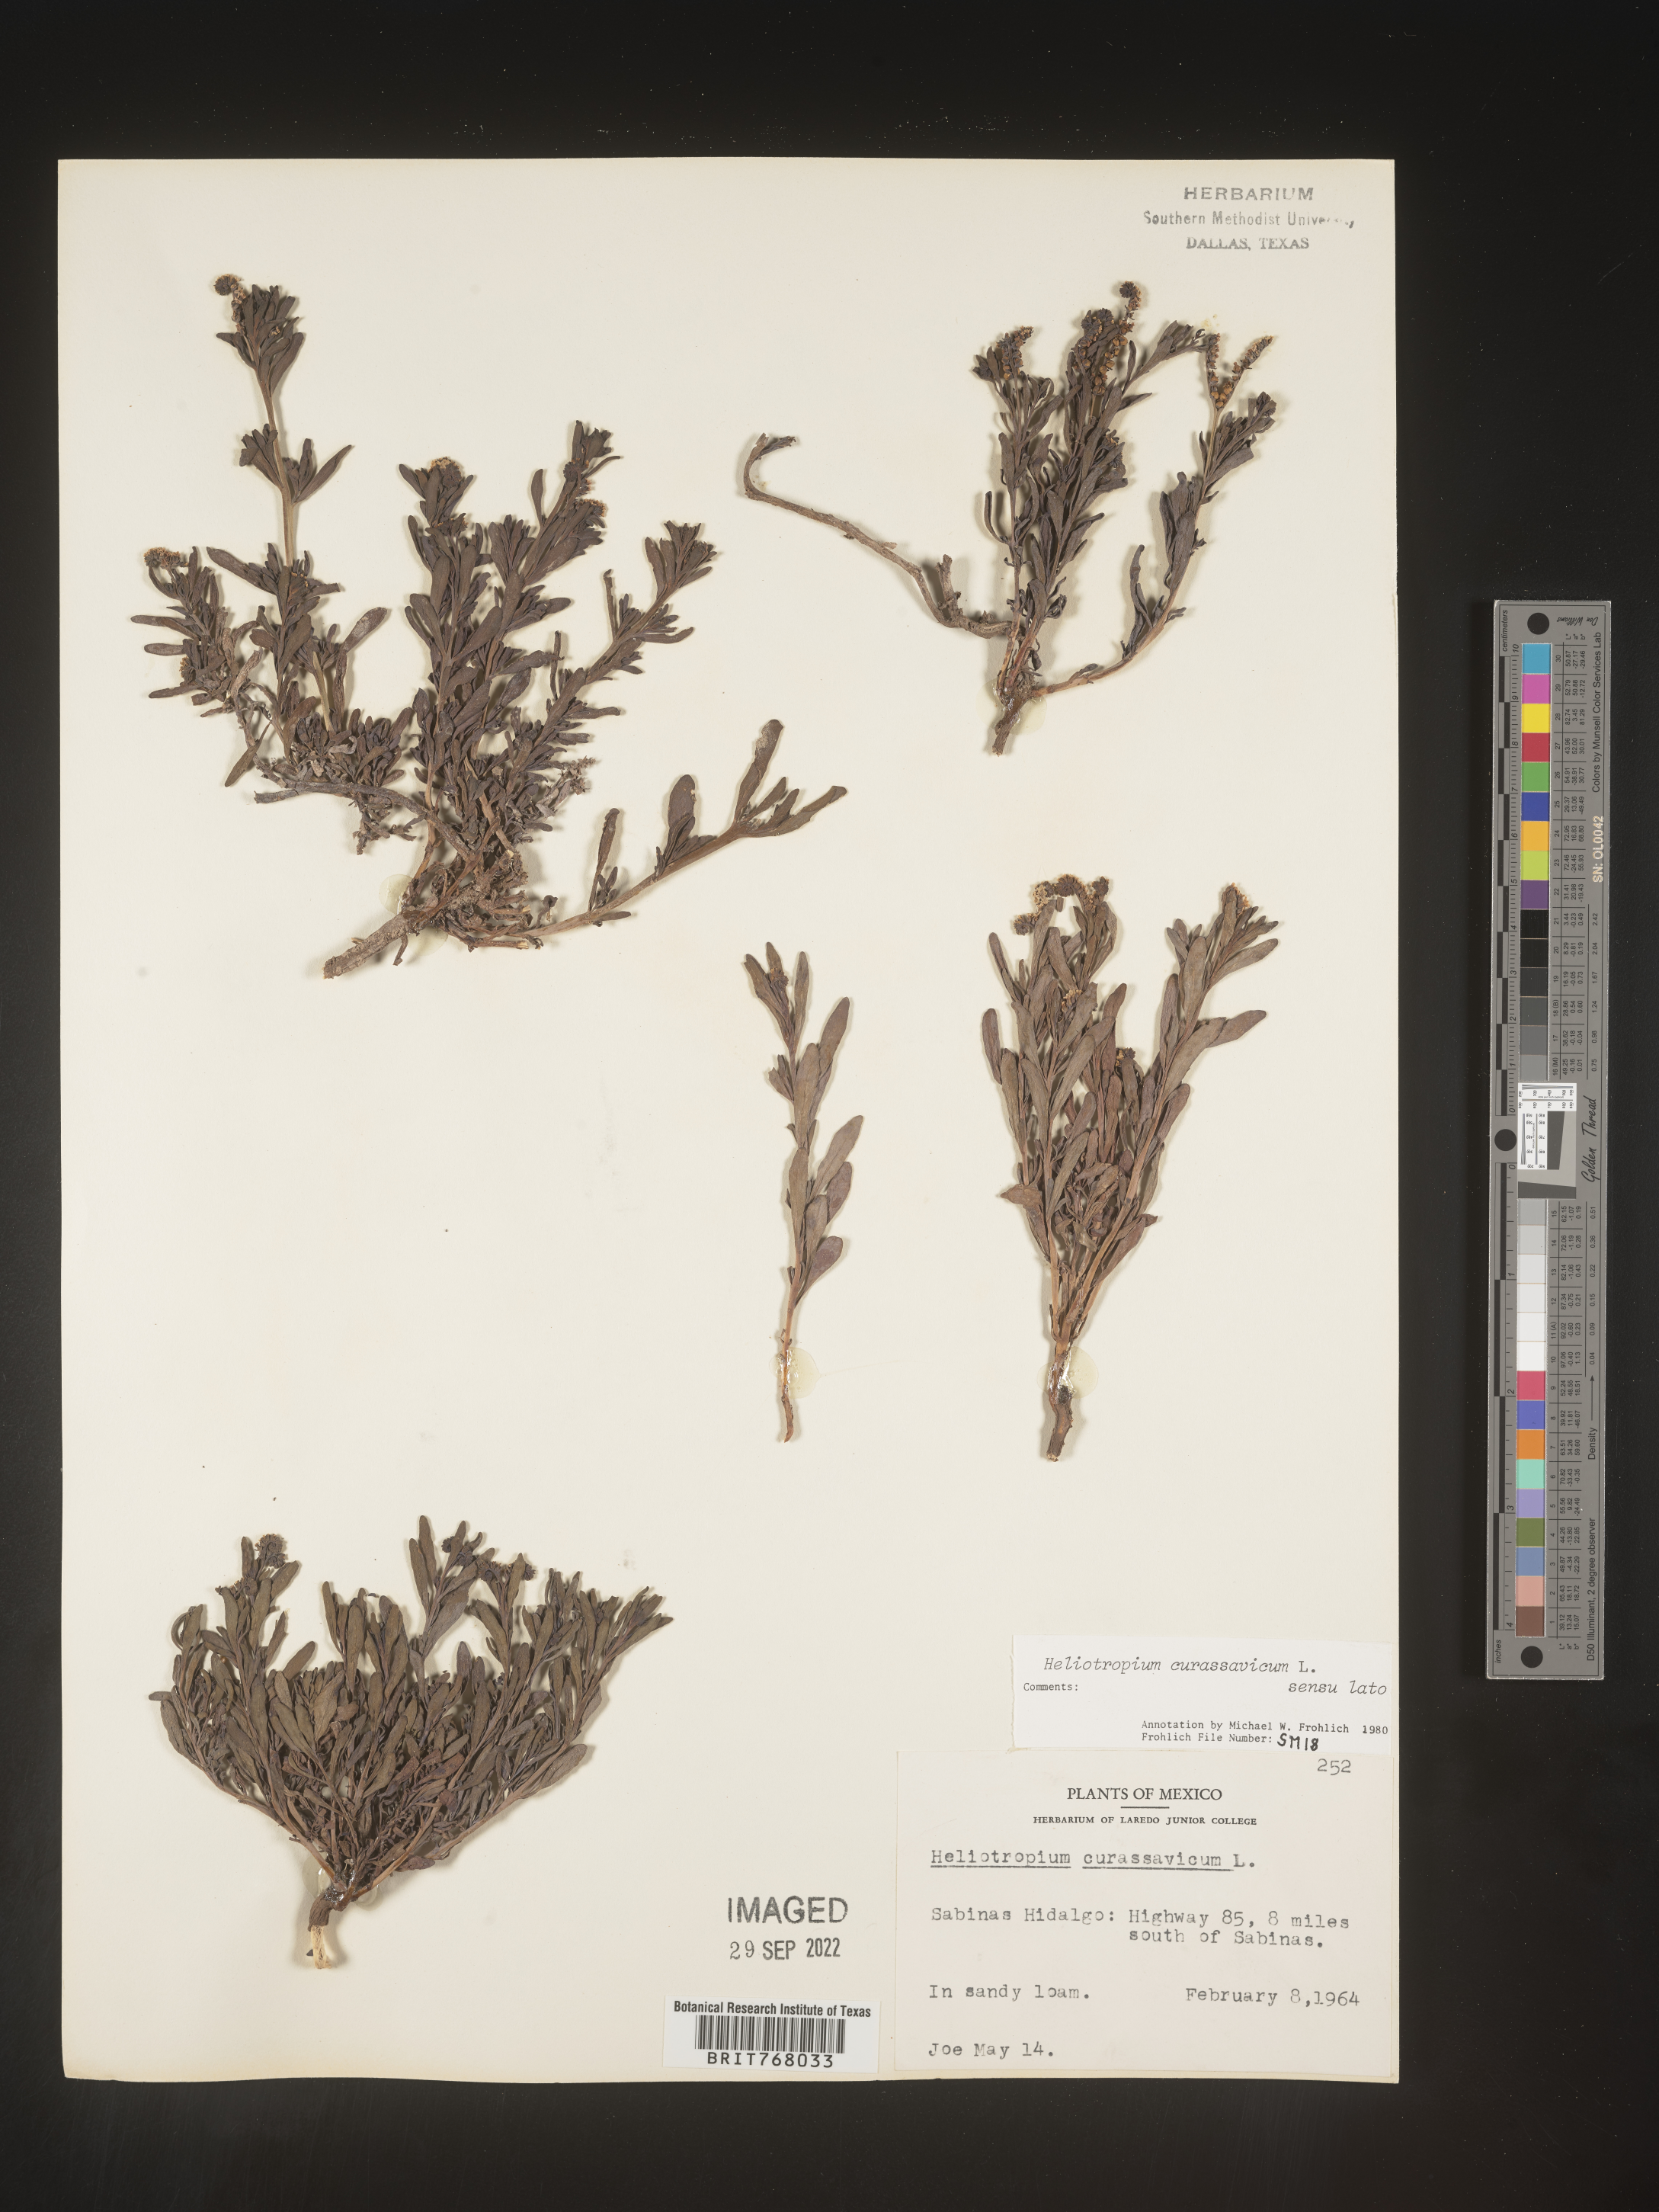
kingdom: Plantae
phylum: Tracheophyta
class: Magnoliopsida
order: Boraginales
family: Heliotropiaceae
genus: Heliotropium
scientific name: Heliotropium curassavicum
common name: Seaside heliotrope
